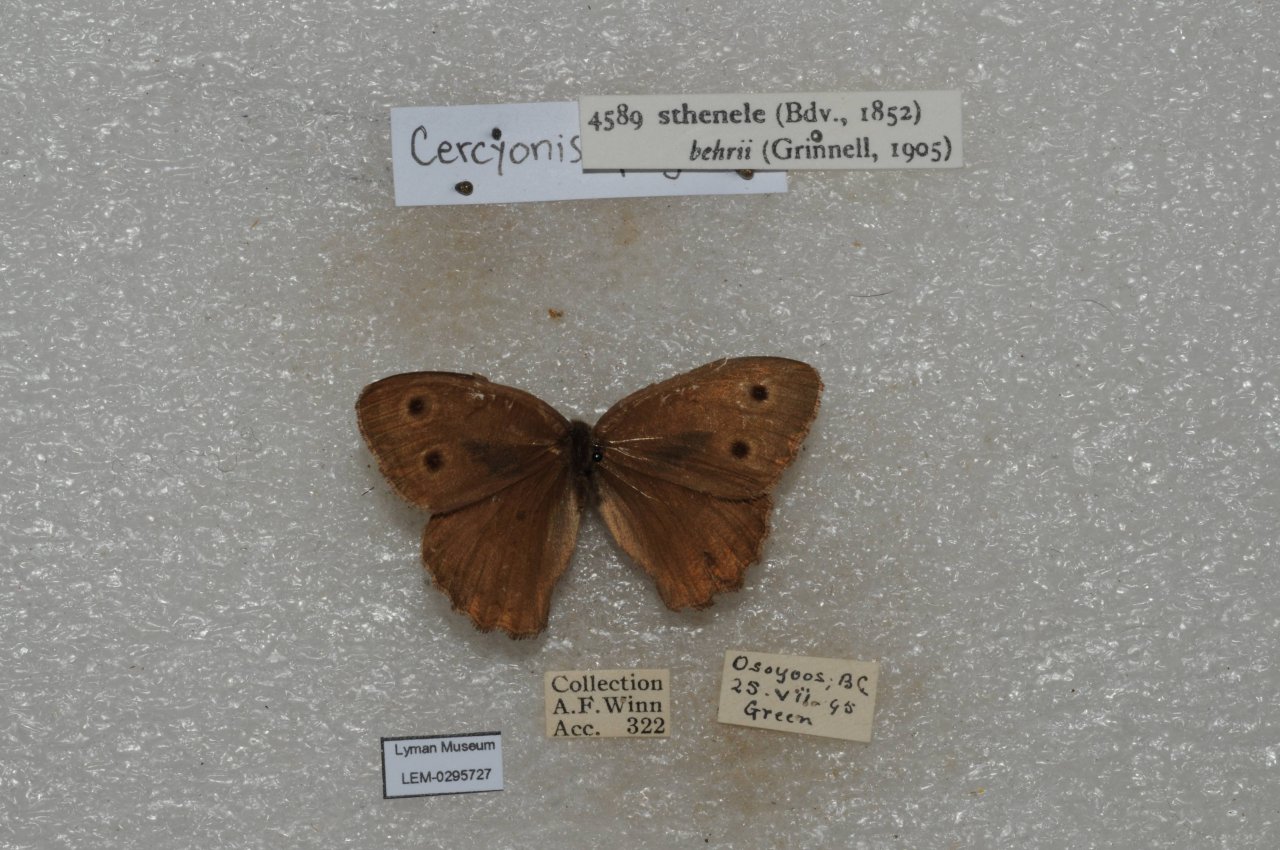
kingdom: Animalia
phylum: Arthropoda
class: Insecta
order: Lepidoptera
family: Nymphalidae
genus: Cercyonis
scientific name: Cercyonis sthenele
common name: Great Basin Wood-Nymph
